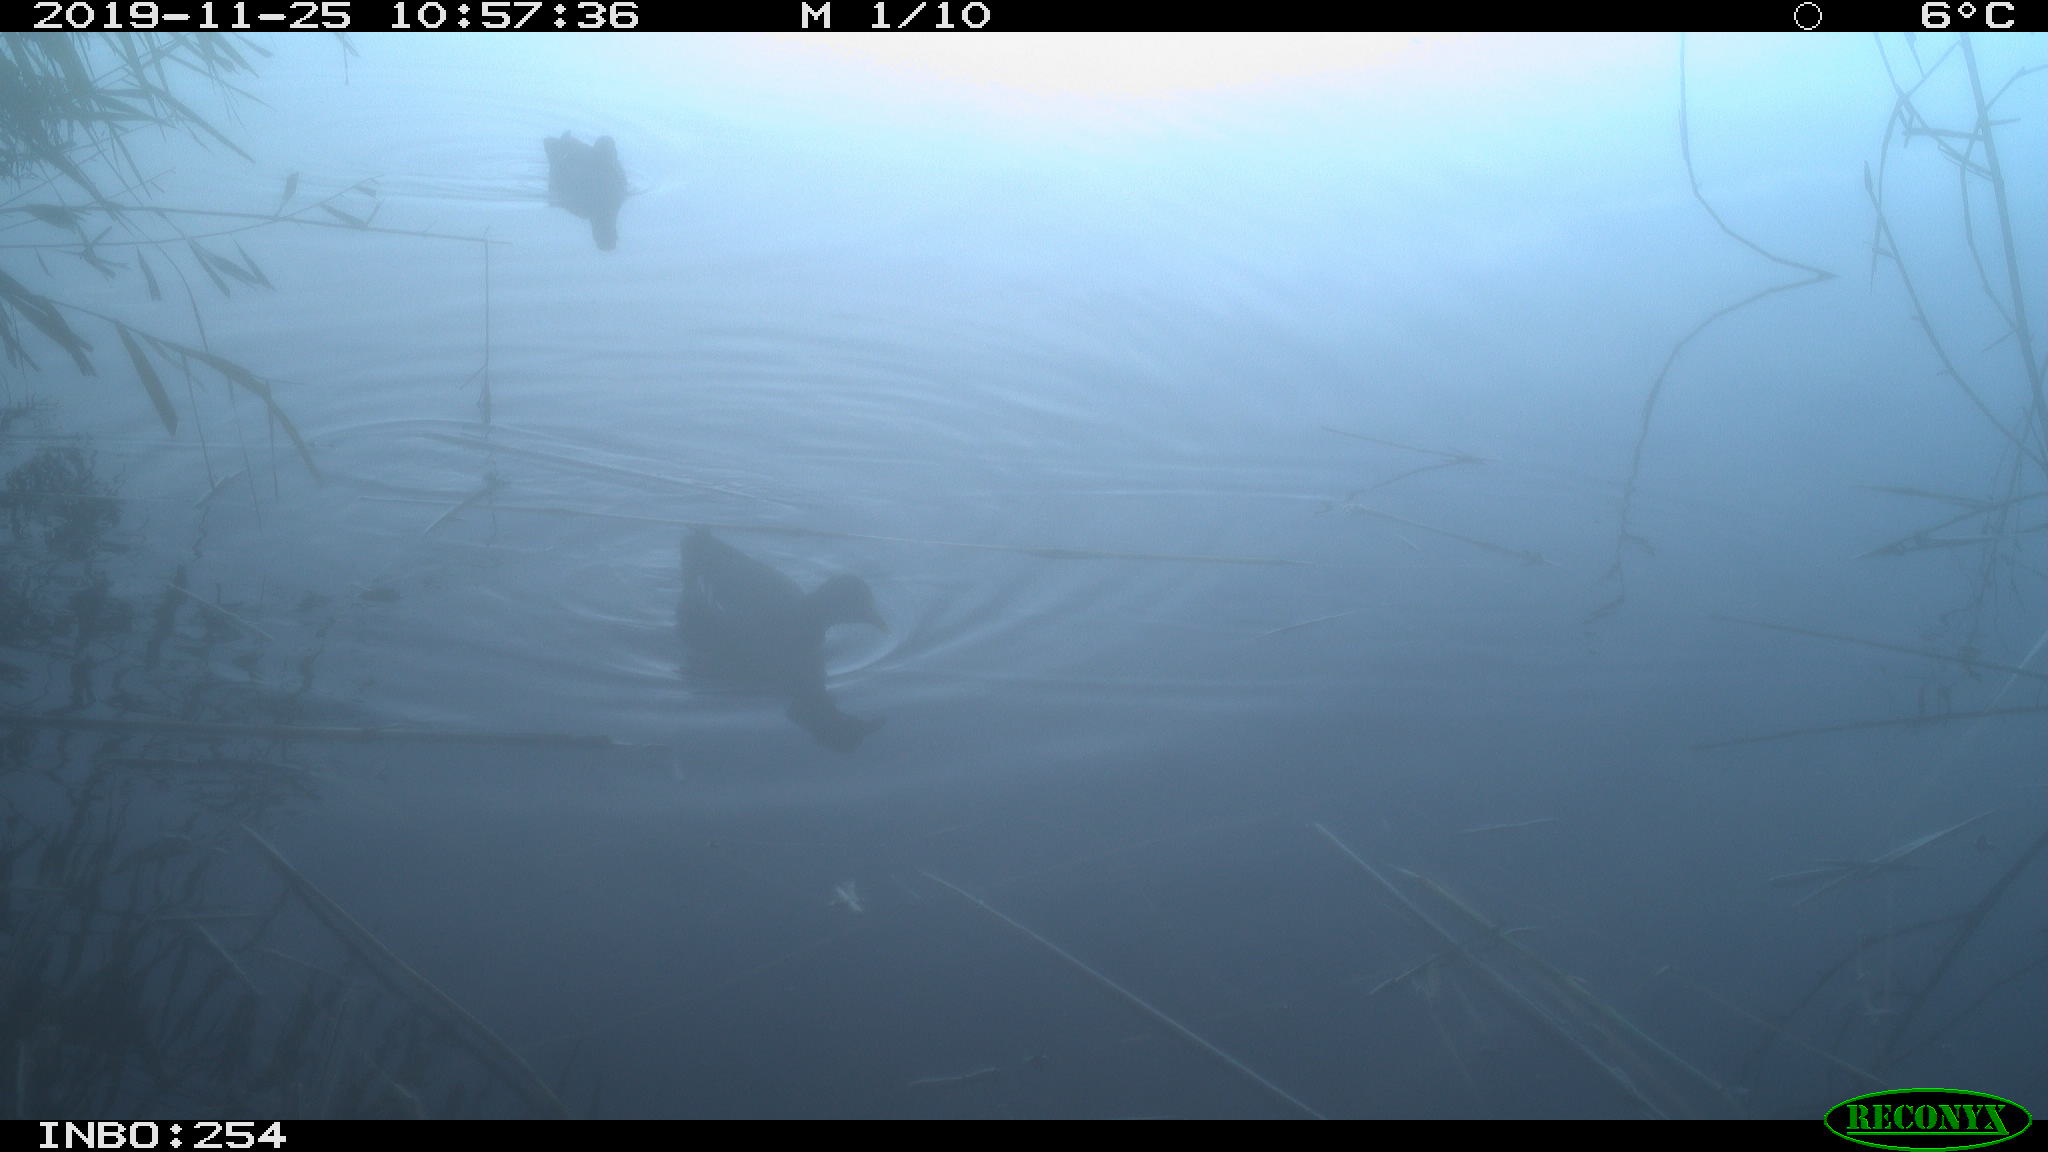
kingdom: Animalia
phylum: Chordata
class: Aves
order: Gruiformes
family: Rallidae
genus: Gallinula
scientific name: Gallinula chloropus
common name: Common moorhen
